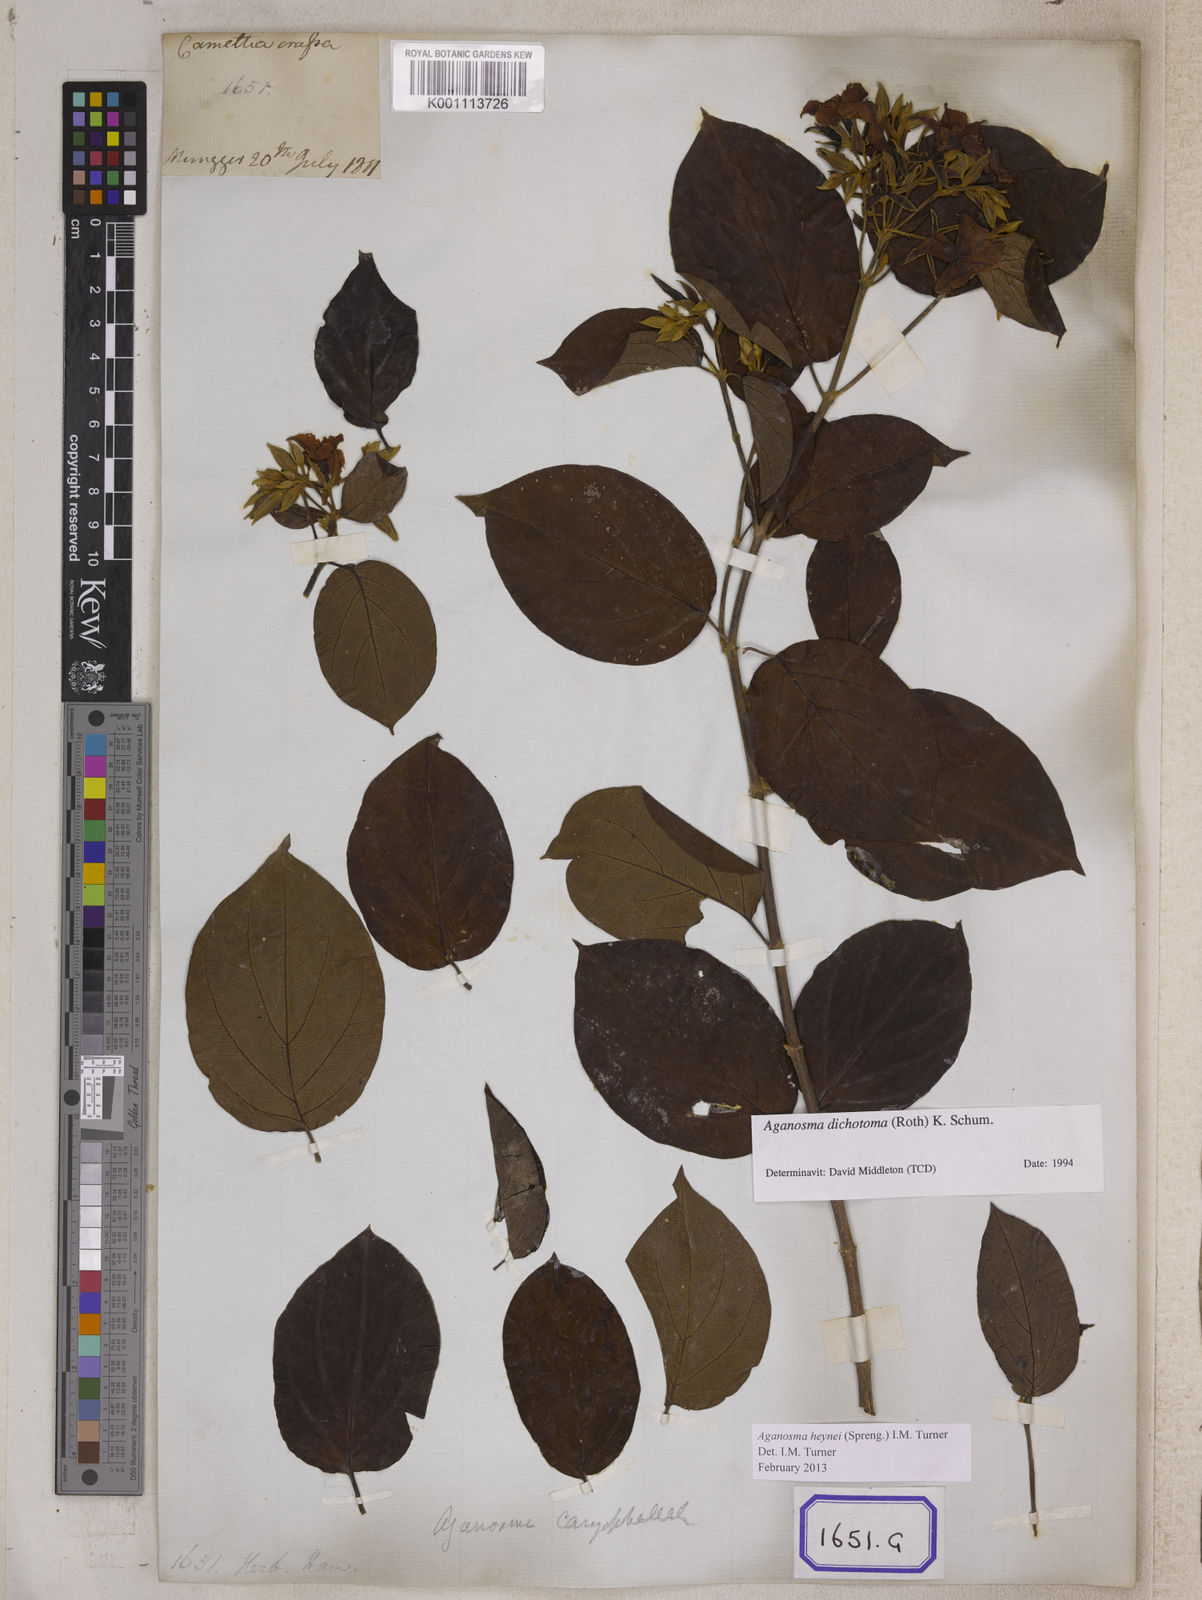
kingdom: Plantae
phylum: Tracheophyta
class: Magnoliopsida
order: Gentianales
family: Apocynaceae
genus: Kamettia
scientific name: Kamettia caryophyllata
